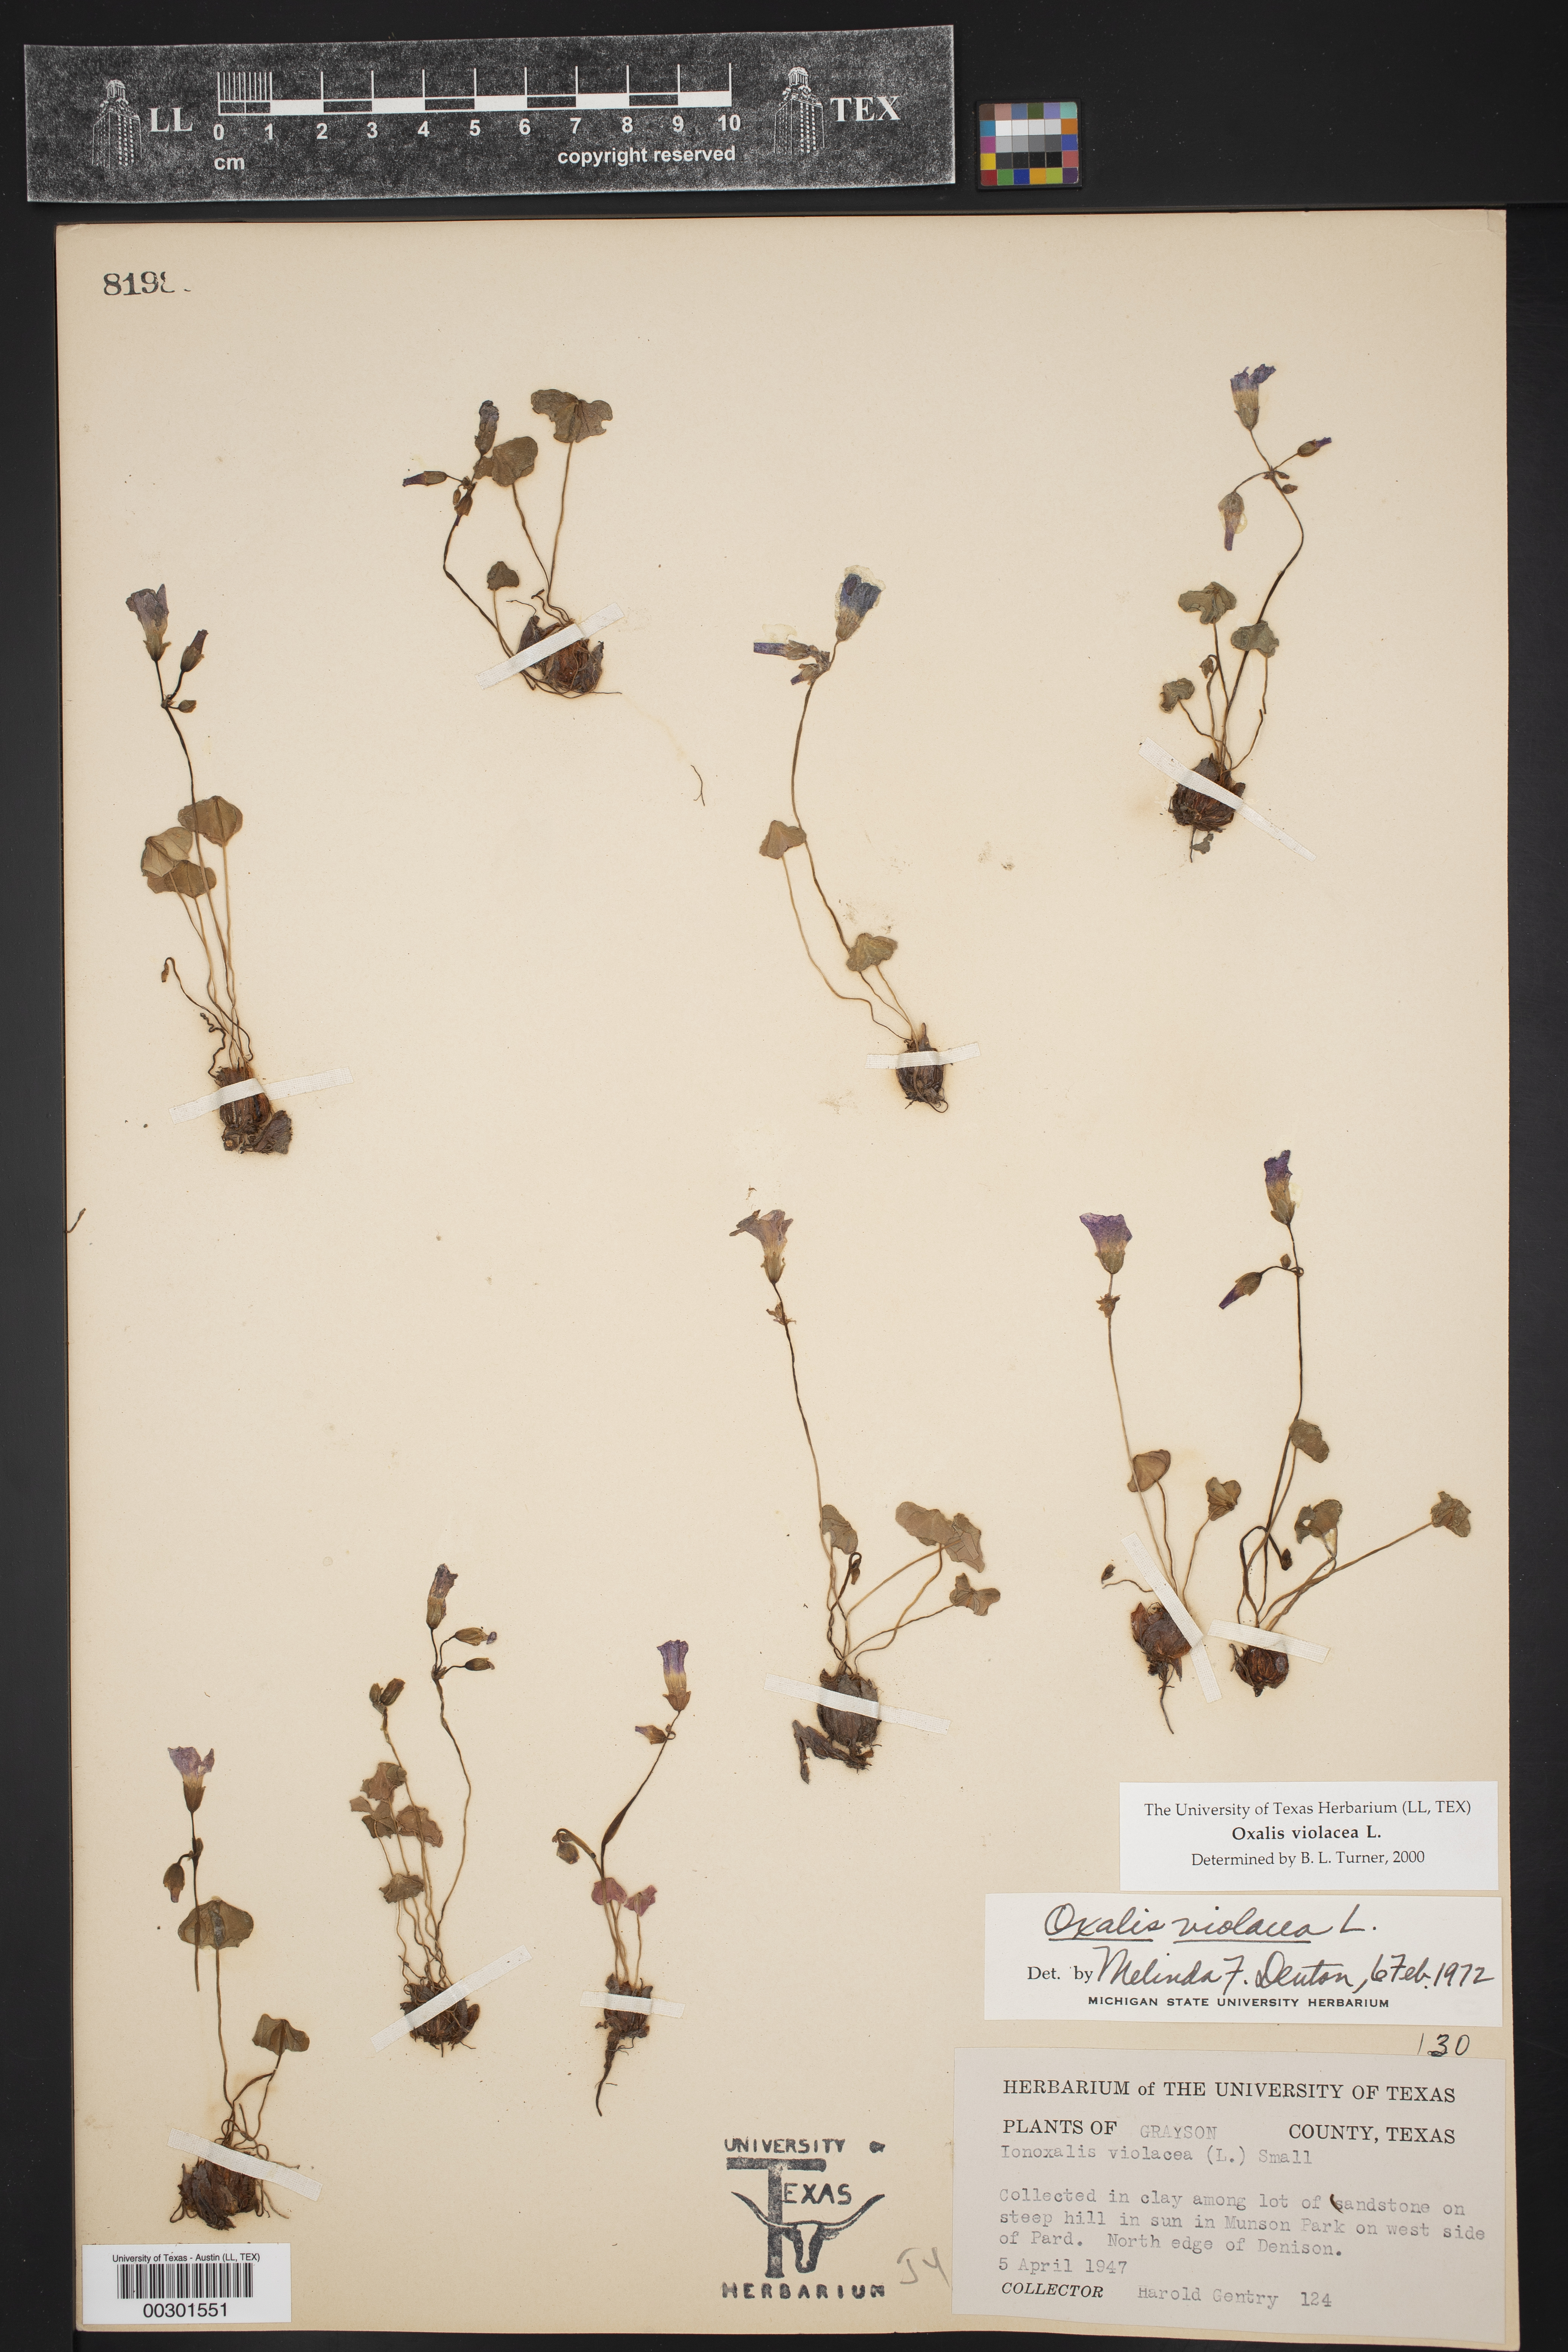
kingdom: Plantae
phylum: Tracheophyta
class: Magnoliopsida
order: Oxalidales
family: Oxalidaceae
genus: Oxalis
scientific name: Oxalis violacea
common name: Violet wood-sorrel
